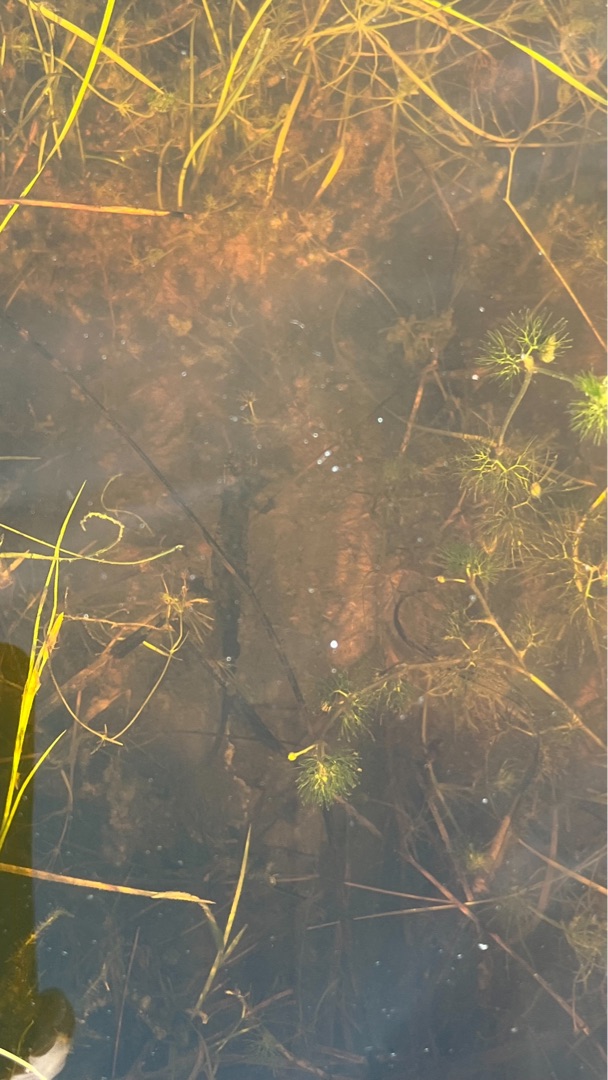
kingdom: Animalia
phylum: Chordata
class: Amphibia
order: Caudata
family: Salamandridae
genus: Triturus
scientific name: Triturus cristatus
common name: Stor vandsalamander
